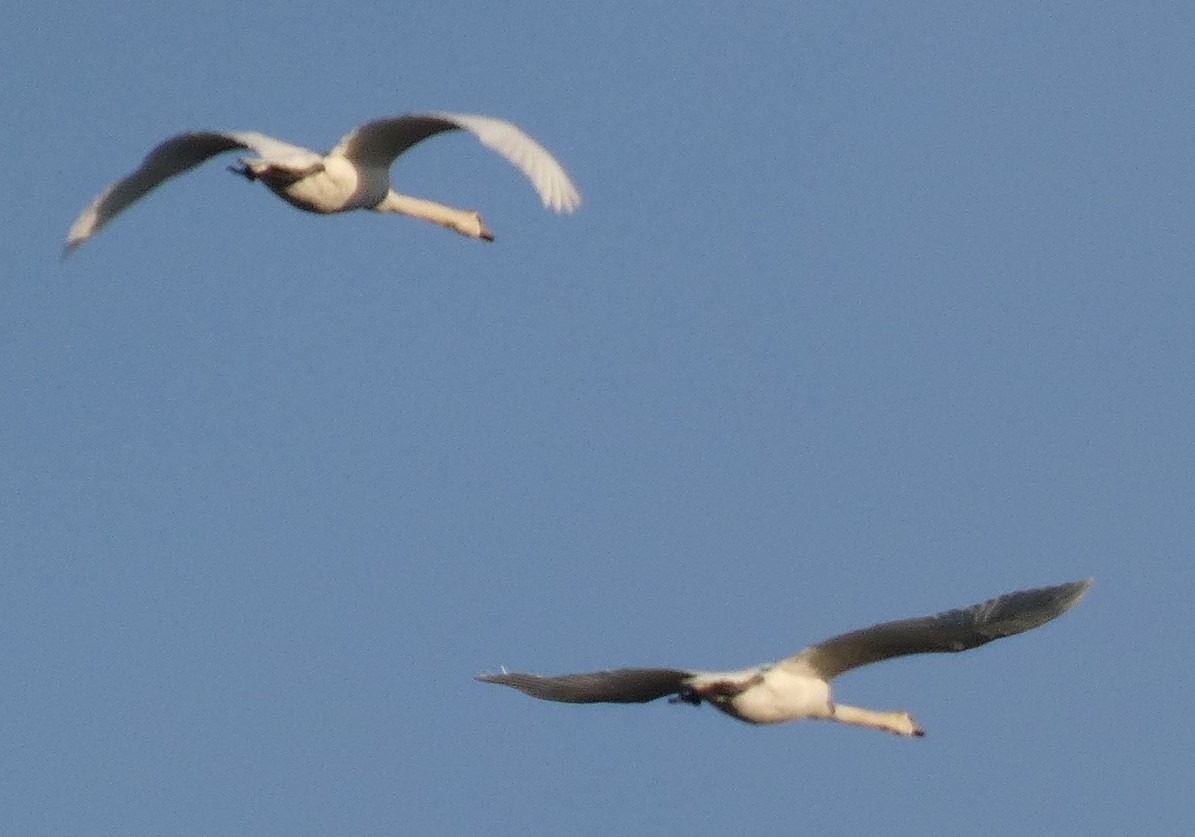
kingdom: Animalia
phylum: Chordata
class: Aves
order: Anseriformes
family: Anatidae
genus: Cygnus
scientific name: Cygnus olor
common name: Knopsvane
